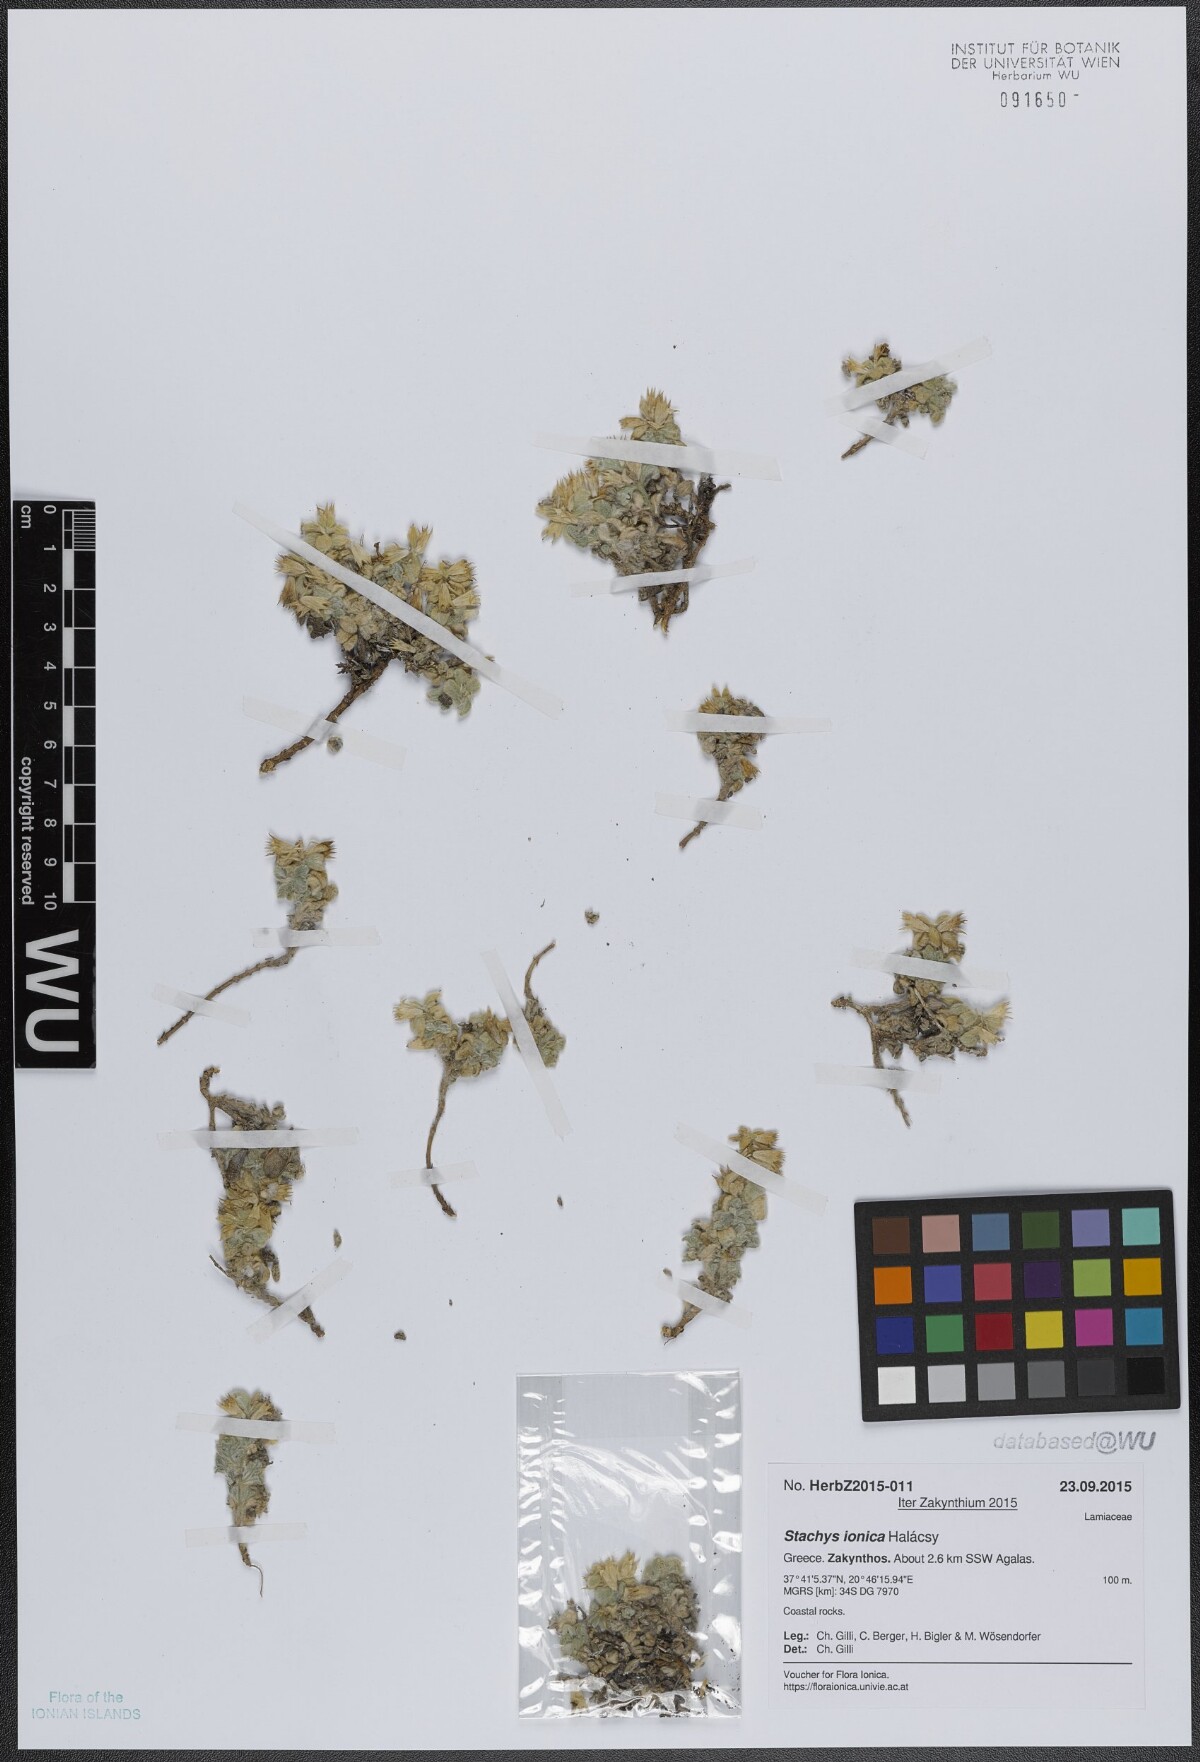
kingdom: Plantae
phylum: Tracheophyta
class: Magnoliopsida
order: Lamiales
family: Lamiaceae
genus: Stachys
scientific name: Stachys ionica
